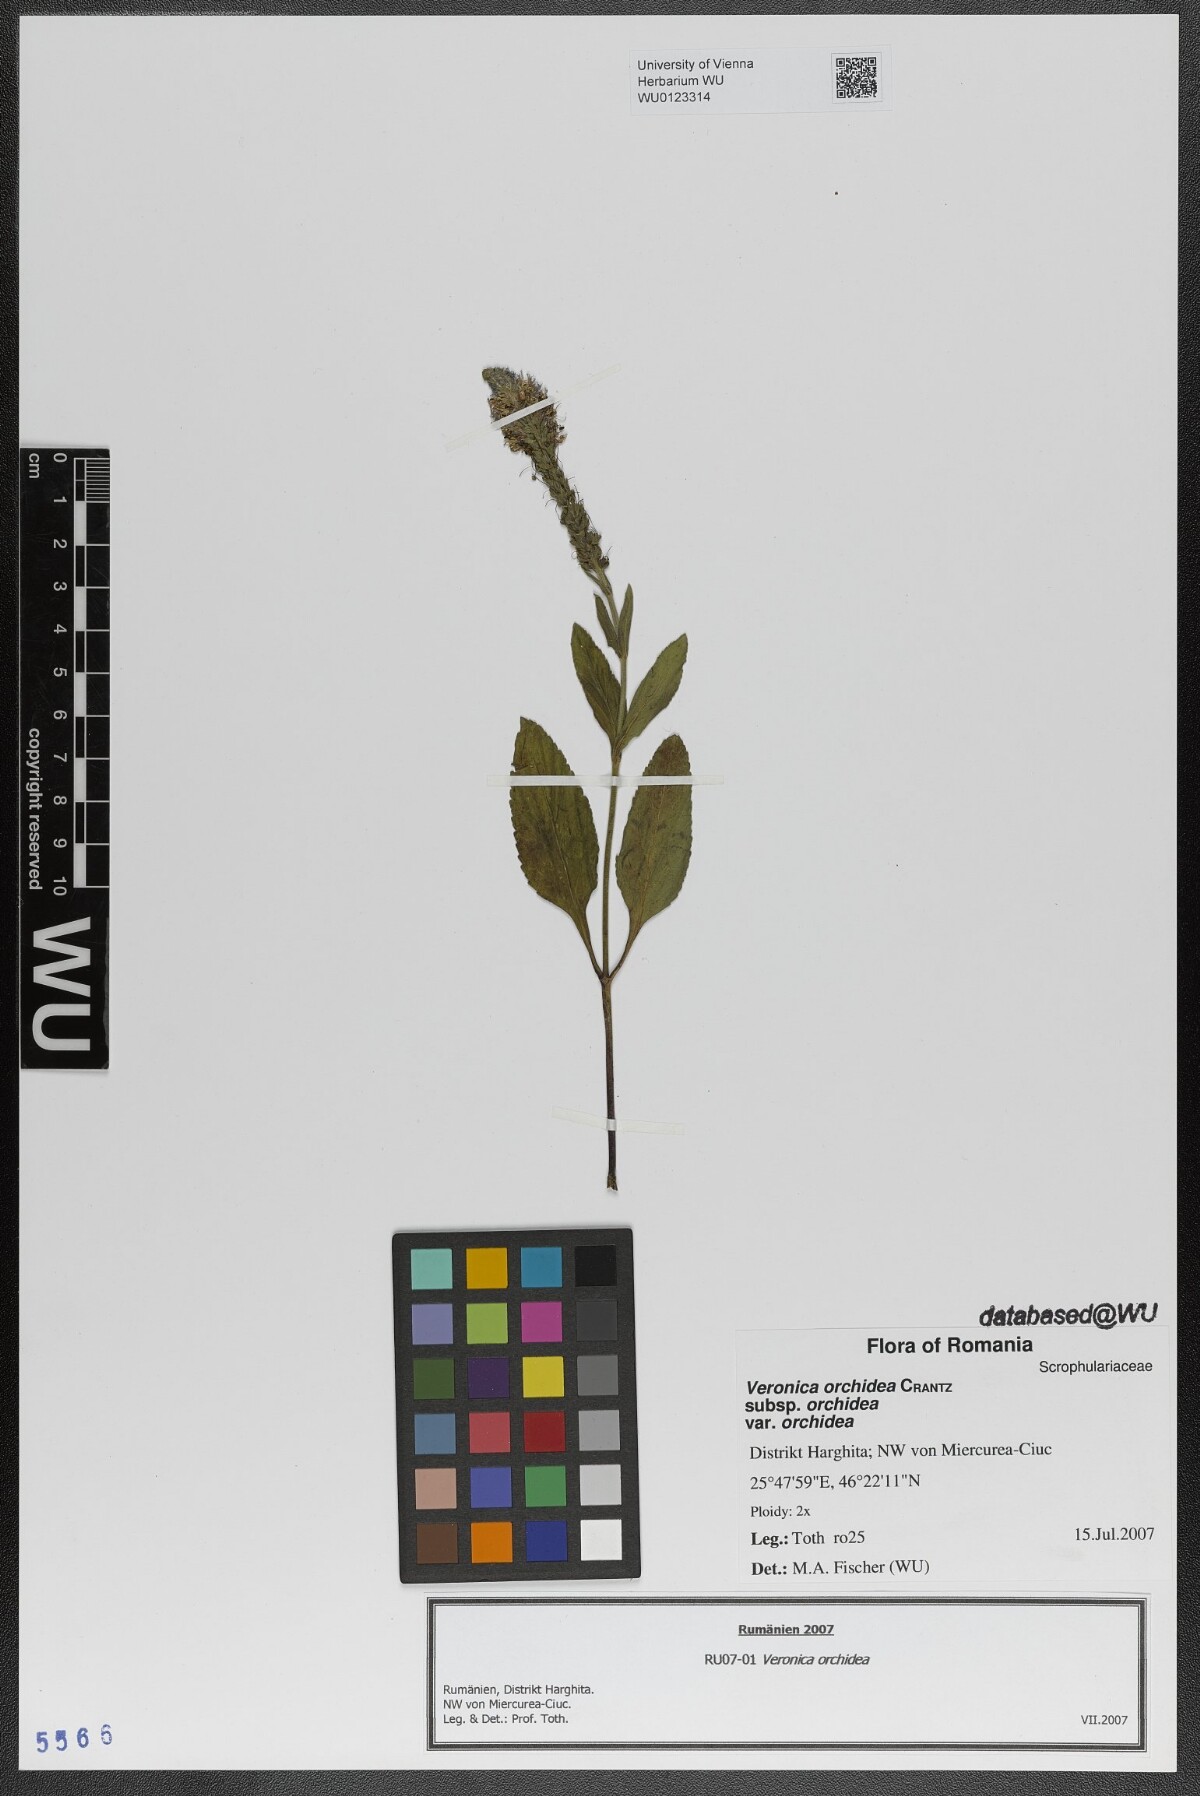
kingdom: Plantae
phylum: Tracheophyta
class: Magnoliopsida
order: Lamiales
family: Plantaginaceae
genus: Veronica
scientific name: Veronica orchidea
